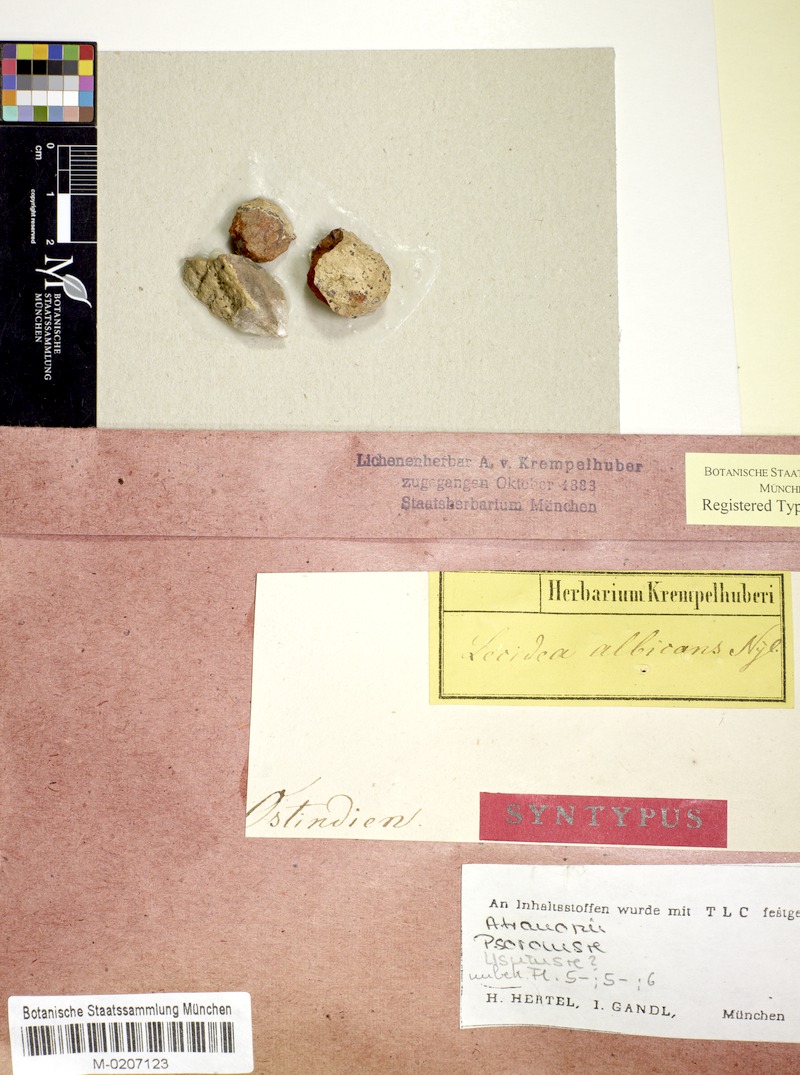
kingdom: Fungi
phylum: Ascomycota
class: Lecanoromycetes
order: Lecanorales
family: Lecanoraceae
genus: Lecanora
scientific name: Lecanora
